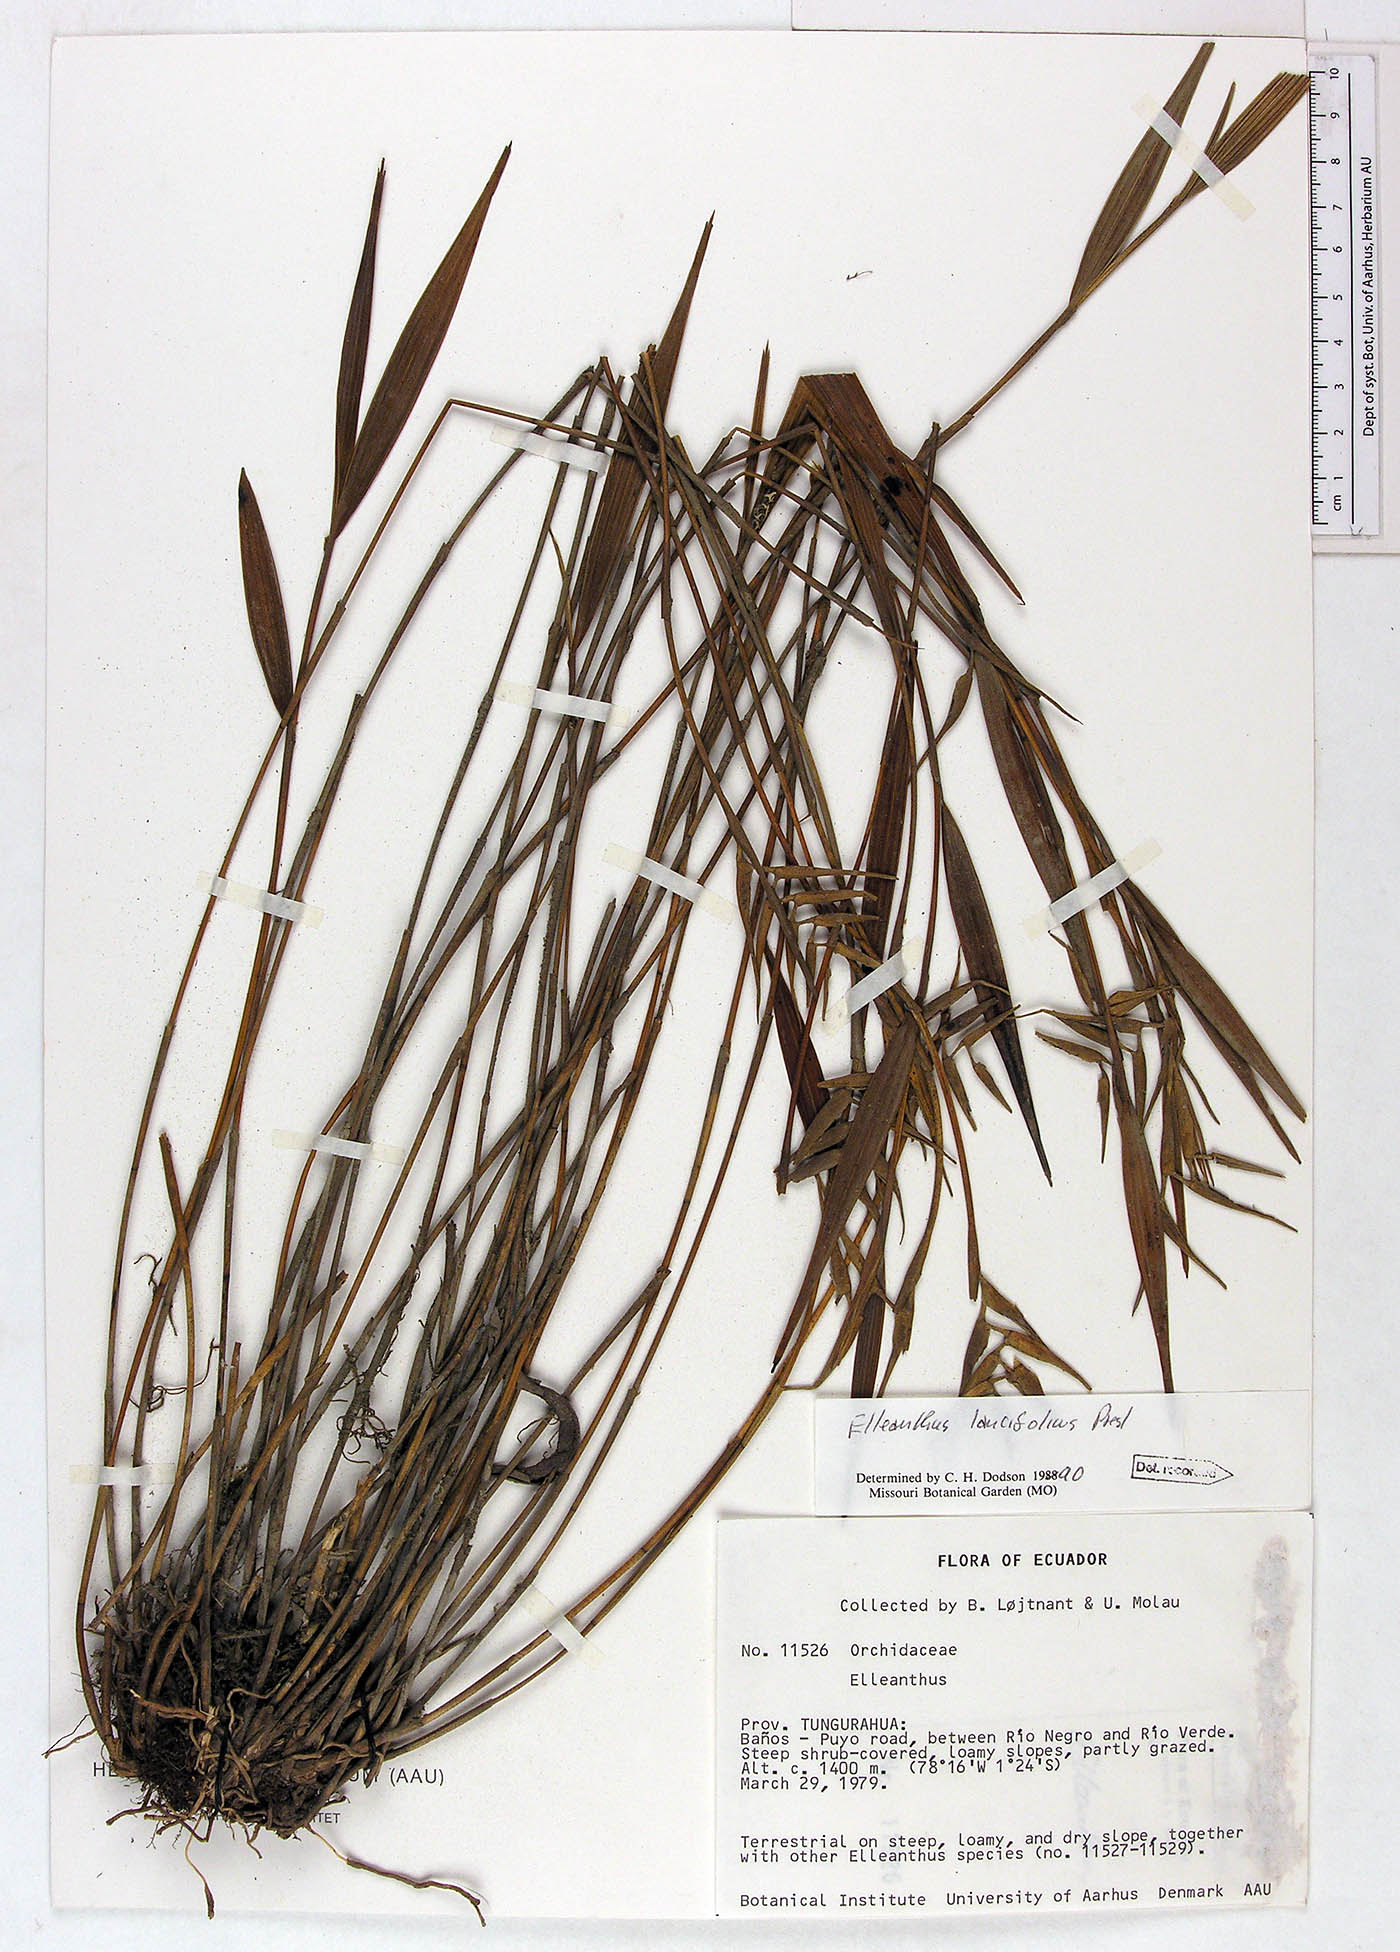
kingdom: Plantae
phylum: Tracheophyta
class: Liliopsida
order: Asparagales
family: Orchidaceae
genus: Elleanthus
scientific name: Elleanthus lancifolius
